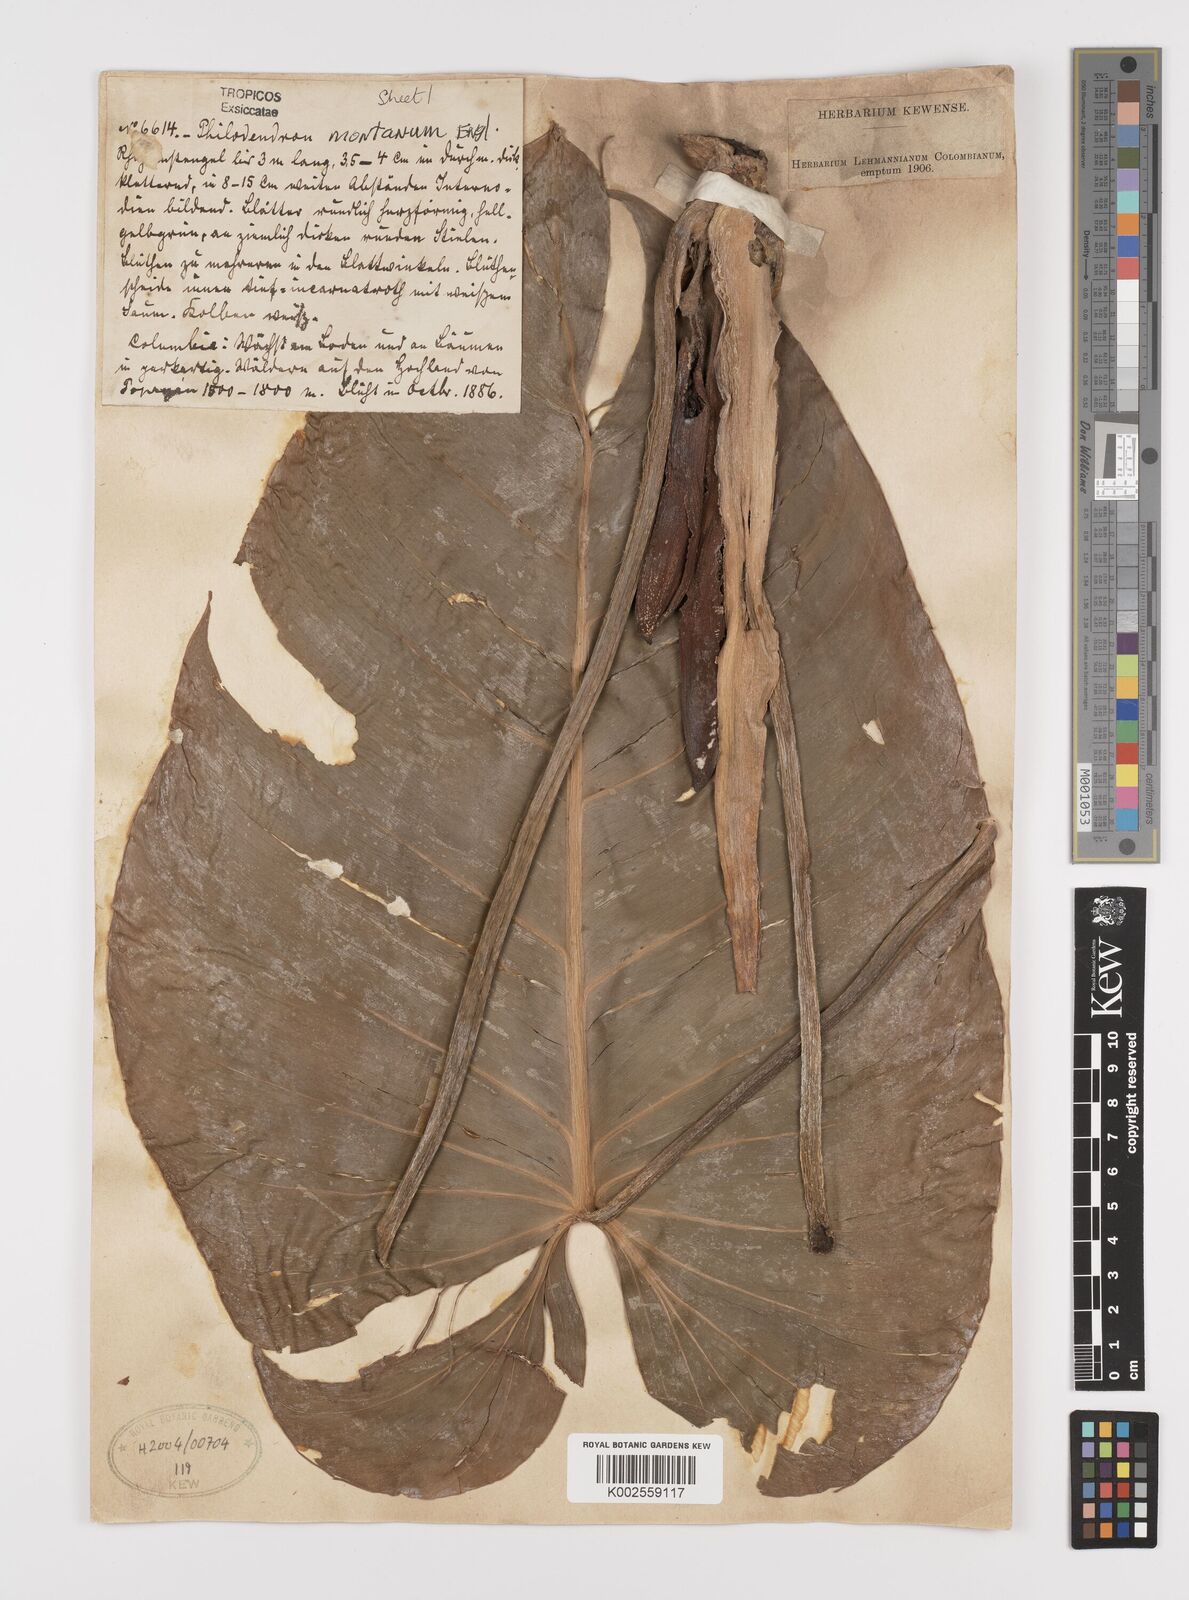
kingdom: Plantae
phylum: Tracheophyta
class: Liliopsida
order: Alismatales
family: Araceae
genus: Philodendron
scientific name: Philodendron montanum
